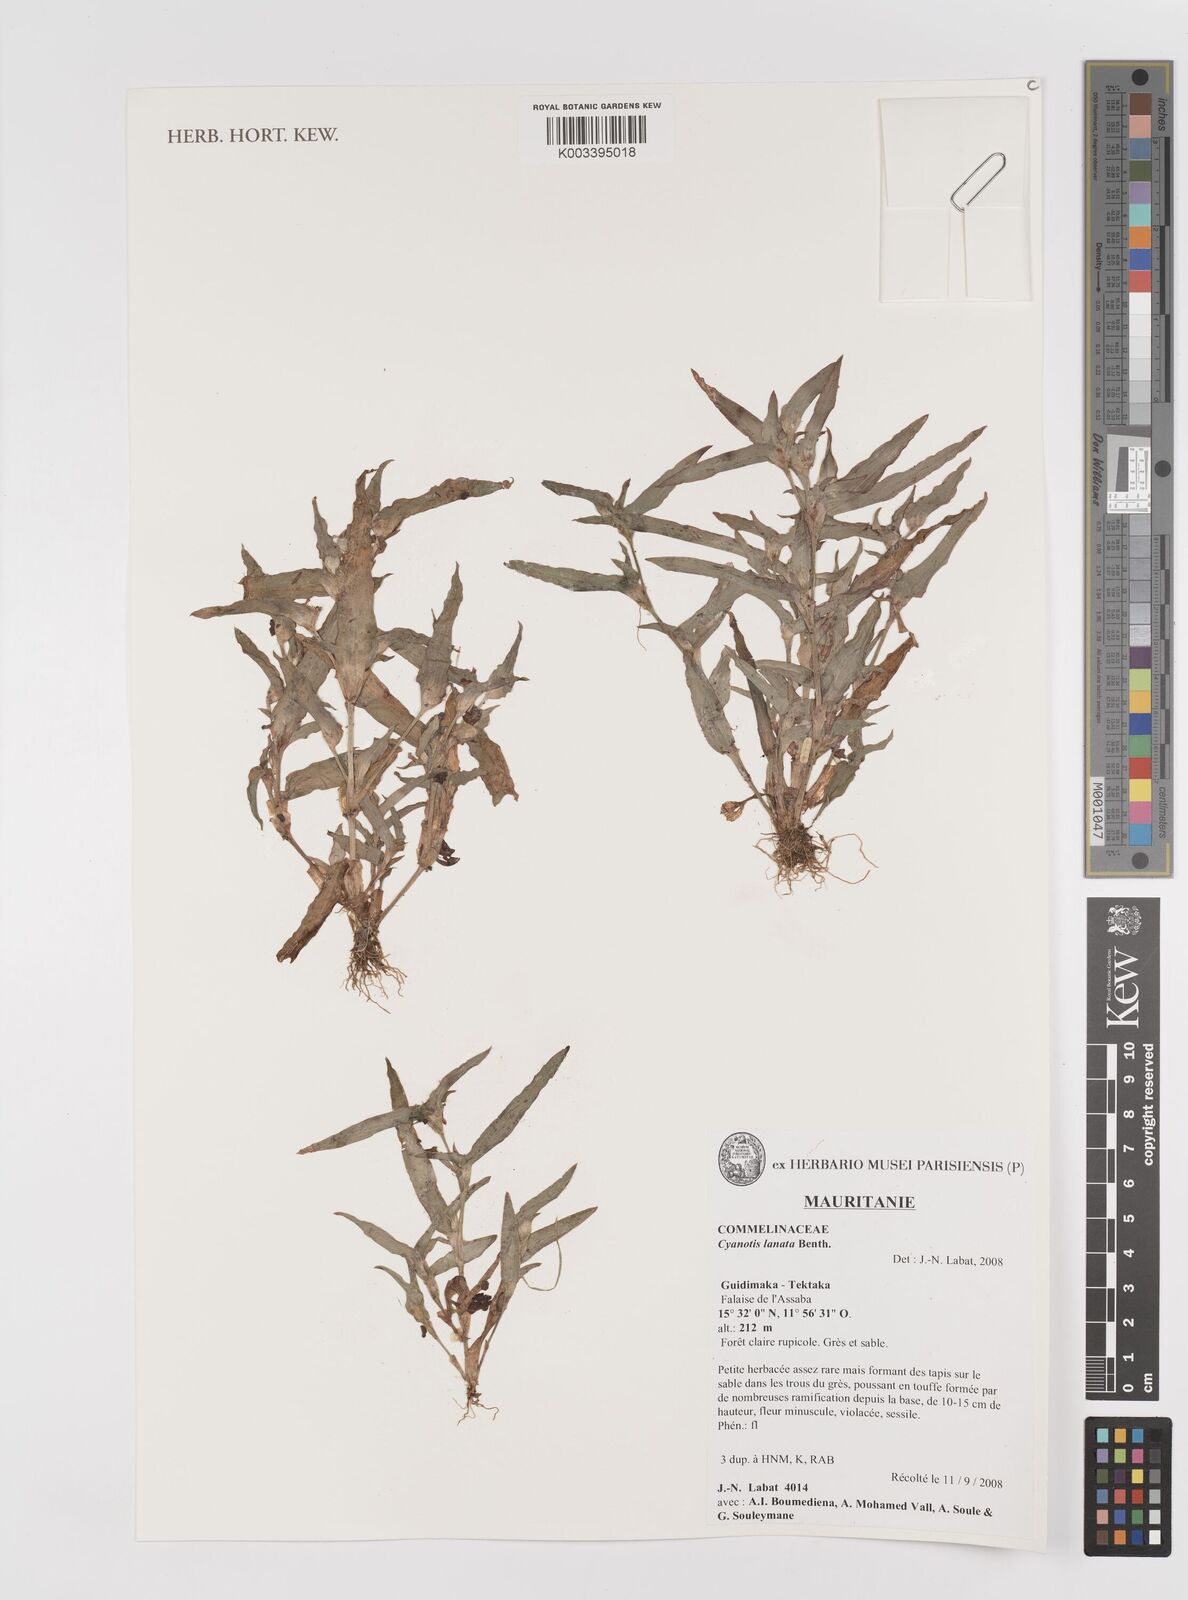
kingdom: Plantae
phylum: Tracheophyta
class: Liliopsida
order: Commelinales
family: Commelinaceae
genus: Cyanotis
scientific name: Cyanotis lanata
